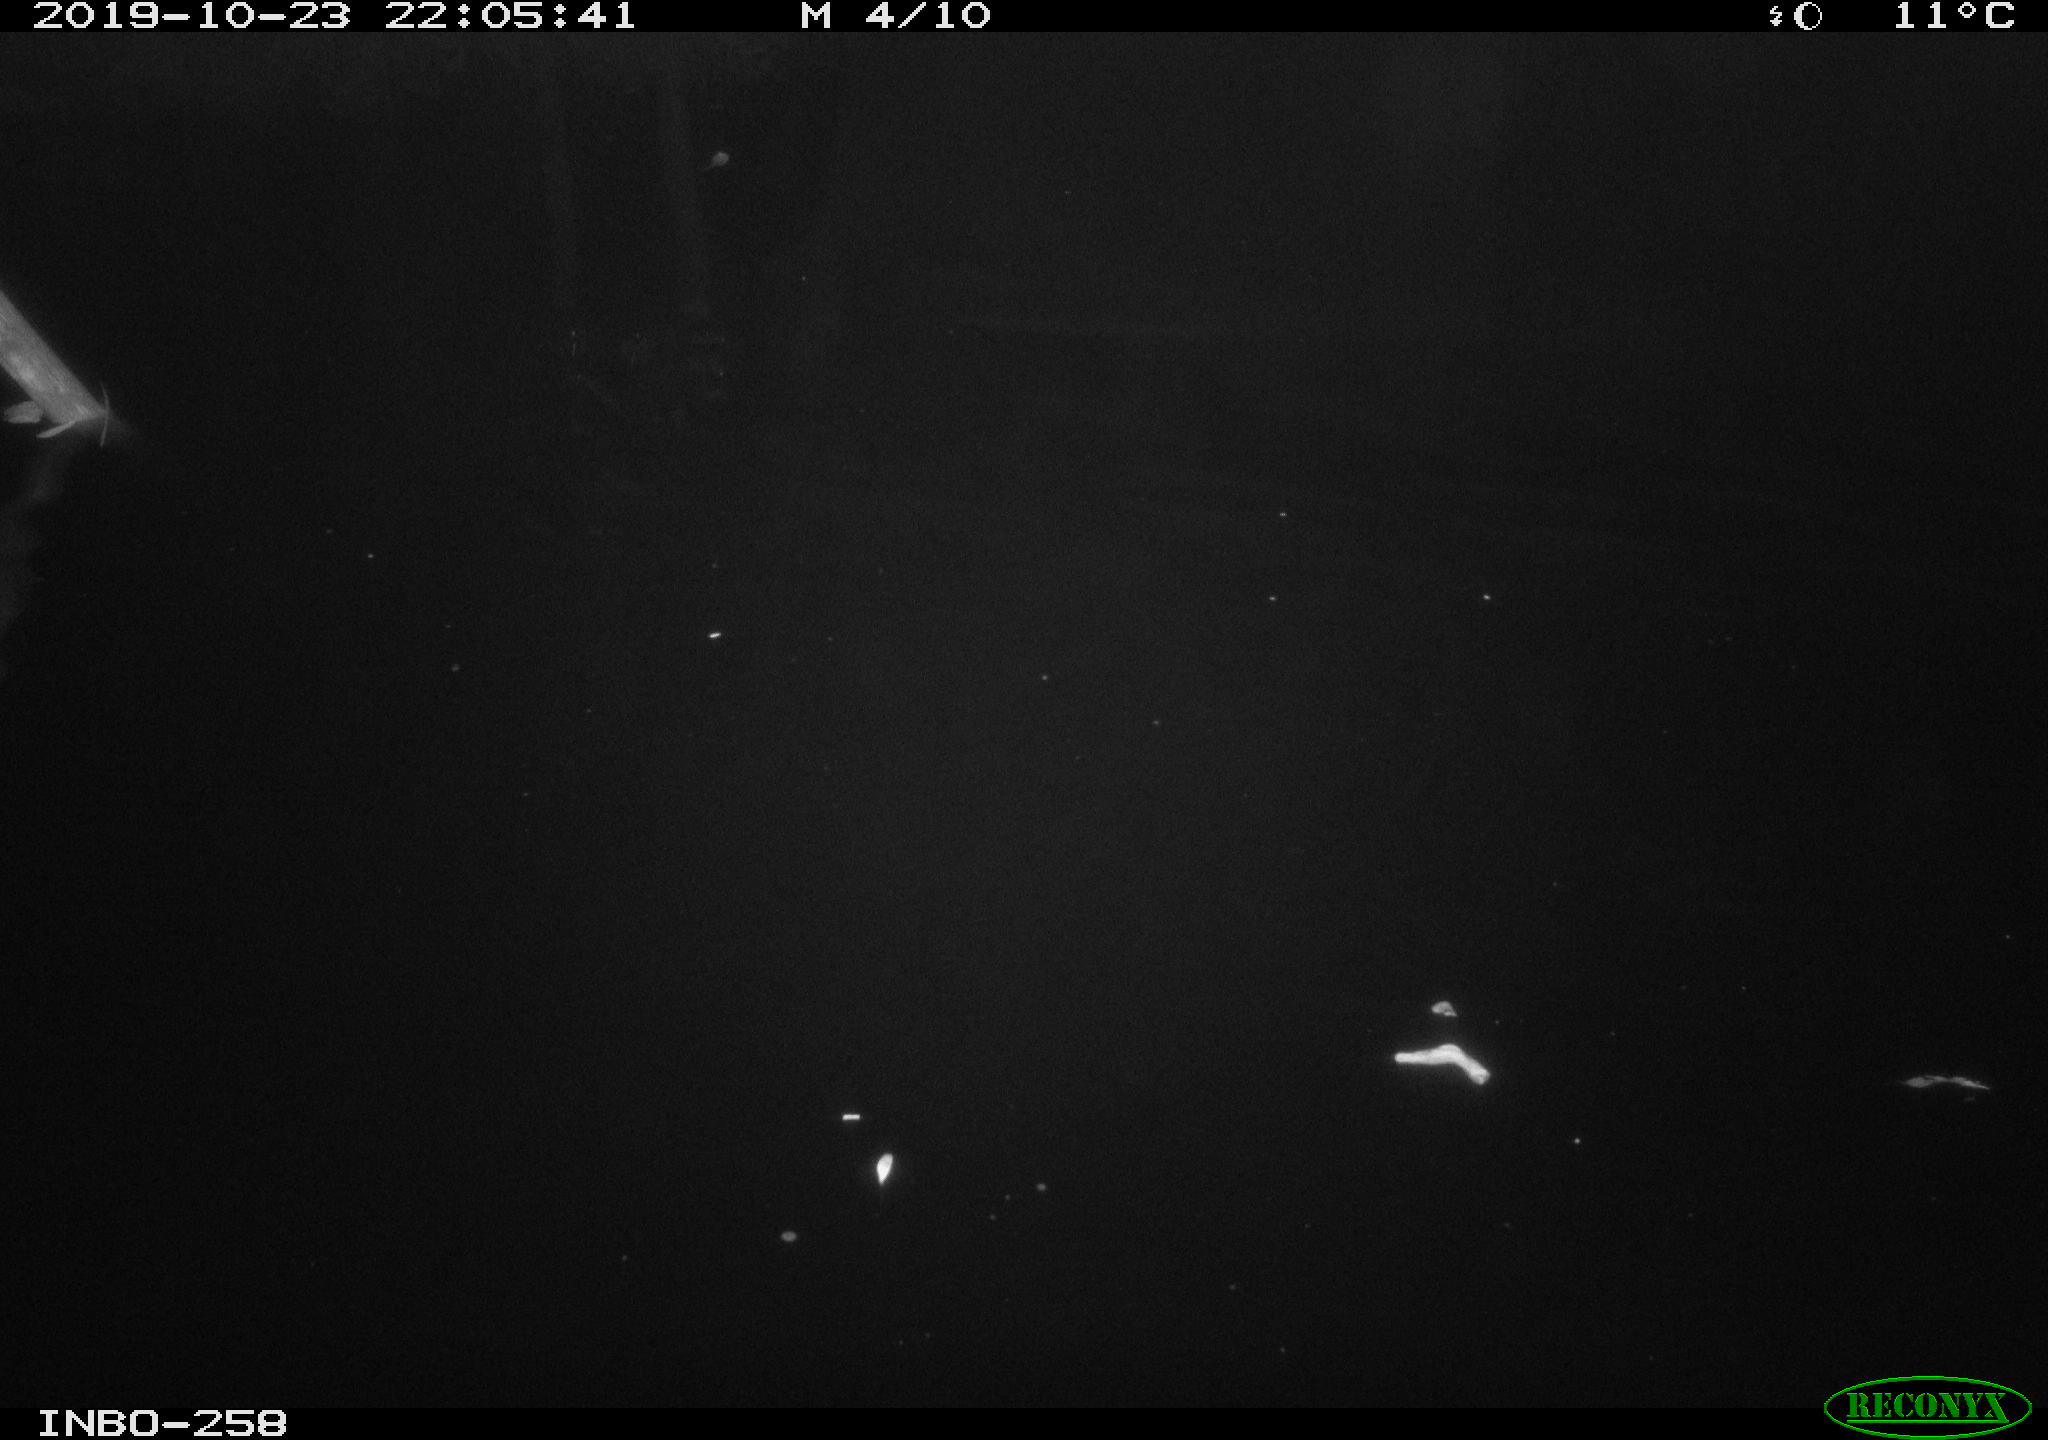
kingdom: Animalia
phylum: Chordata
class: Aves
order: Anseriformes
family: Anatidae
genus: Anas
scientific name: Anas platyrhynchos
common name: Mallard
